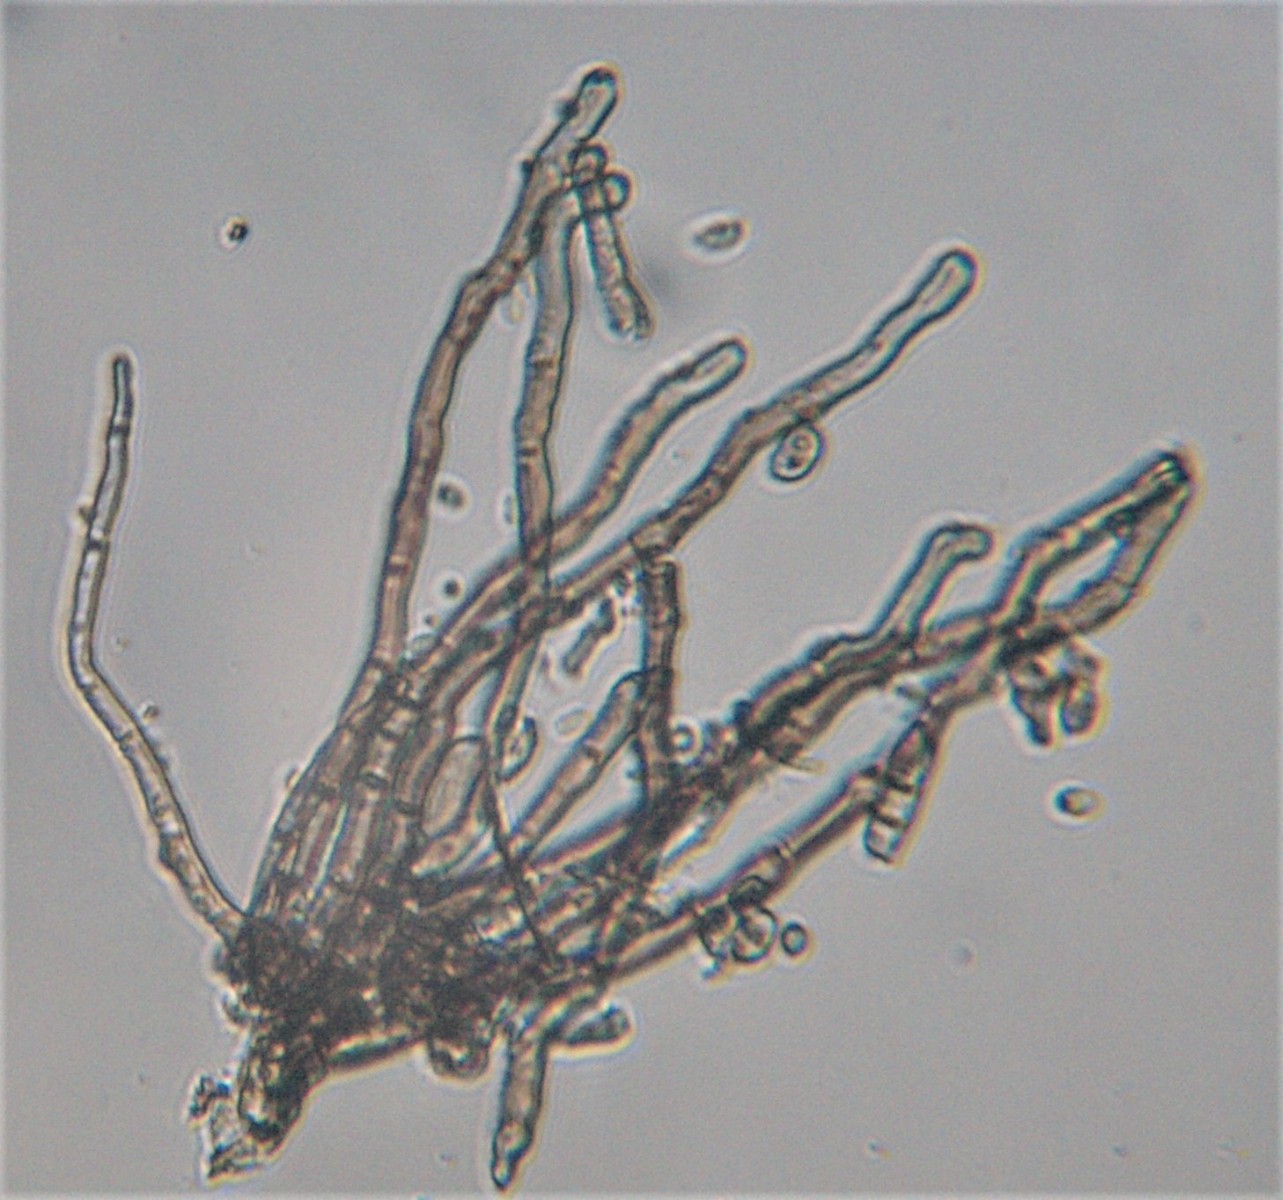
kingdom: Fungi
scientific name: Fungi
